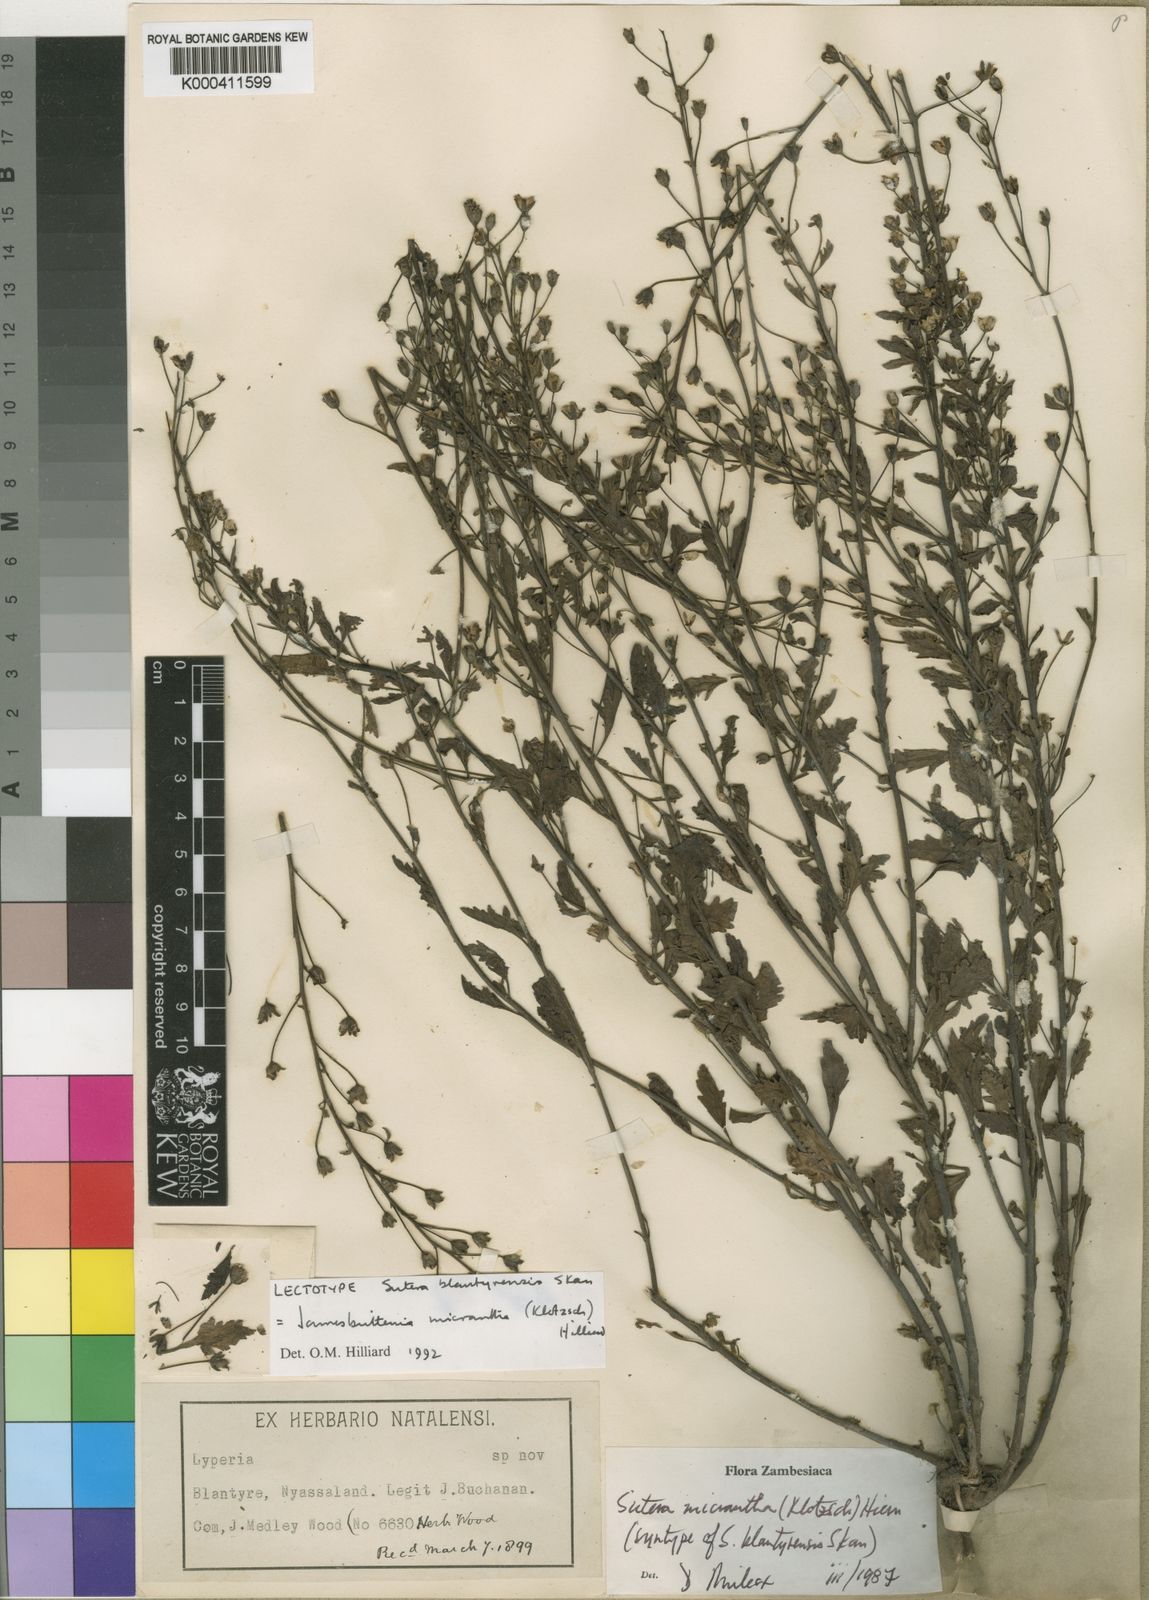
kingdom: Plantae
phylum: Tracheophyta
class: Magnoliopsida
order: Lamiales
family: Scrophulariaceae
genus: Jamesbrittenia
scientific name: Jamesbrittenia micrantha
